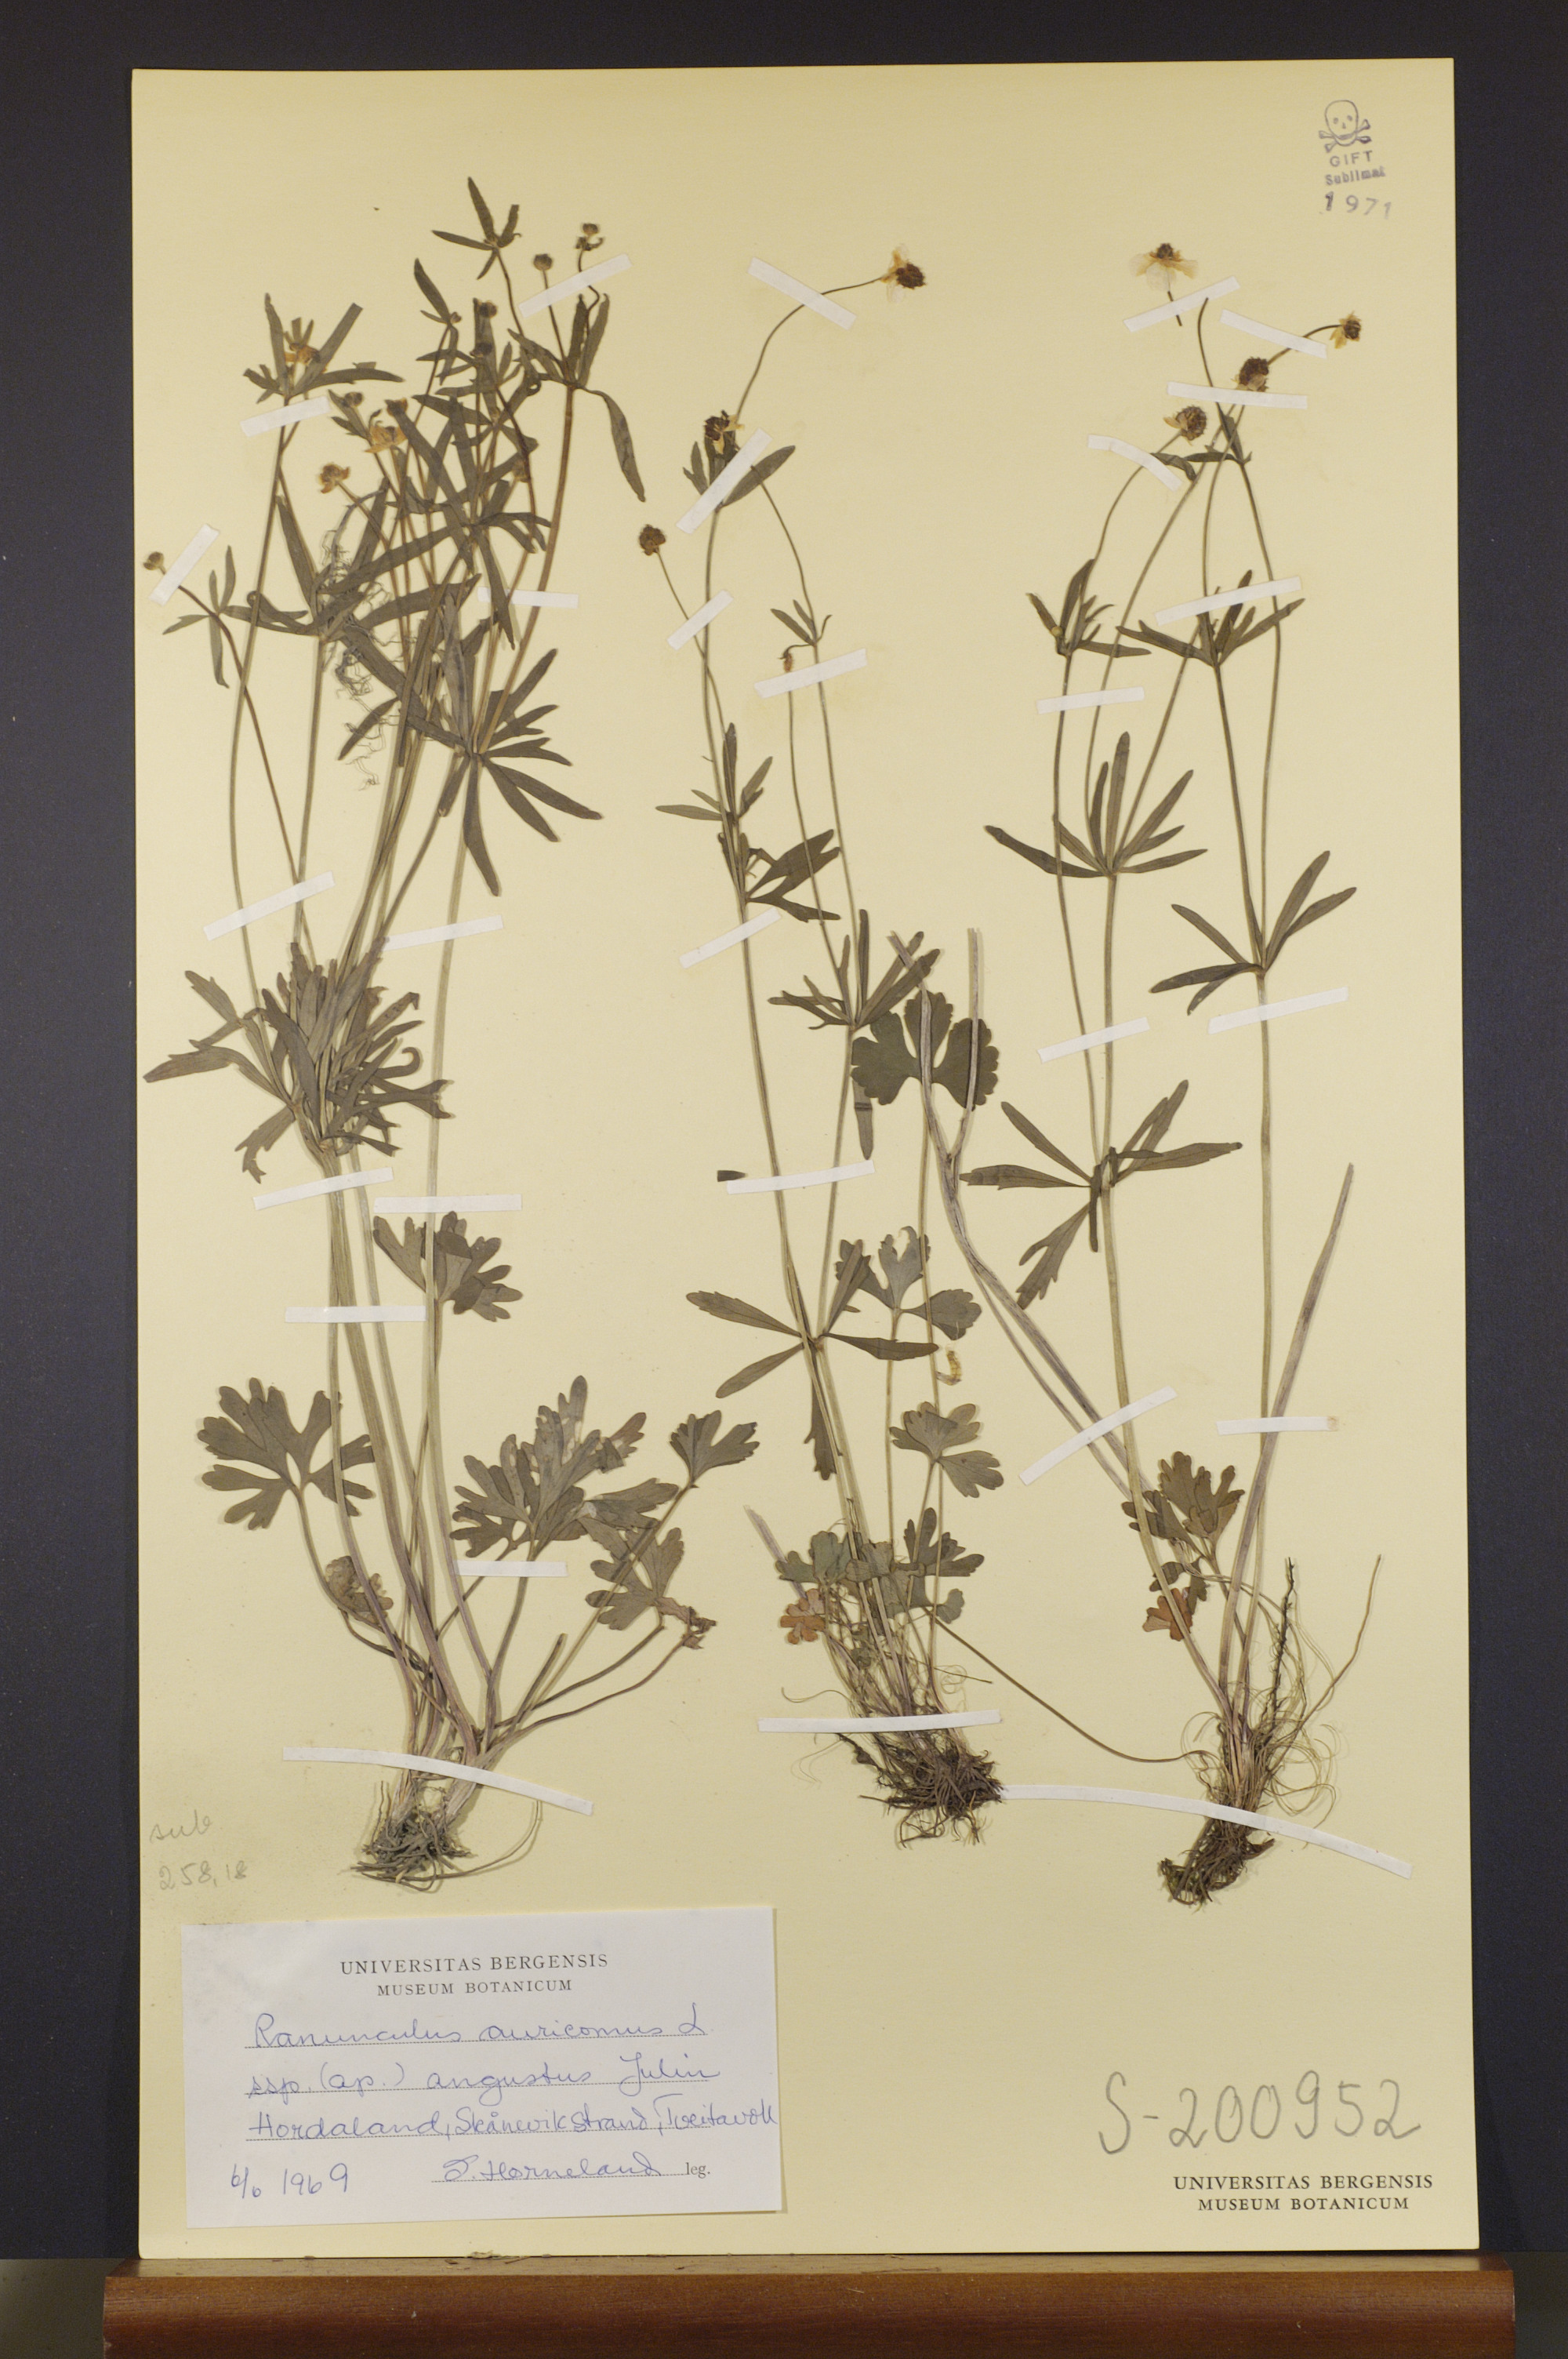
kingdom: Plantae
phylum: Tracheophyta
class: Magnoliopsida
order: Ranunculales
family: Ranunculaceae
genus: Ranunculus
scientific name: Ranunculus angustus
